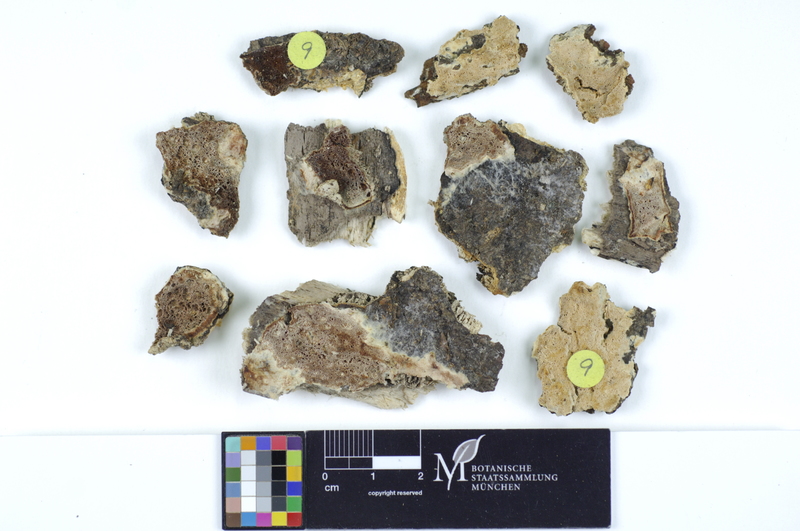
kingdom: Fungi
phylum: Basidiomycota
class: Agaricomycetes
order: Hymenochaetales
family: Schizoporaceae
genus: Xylodon
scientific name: Xylodon flaviporus
